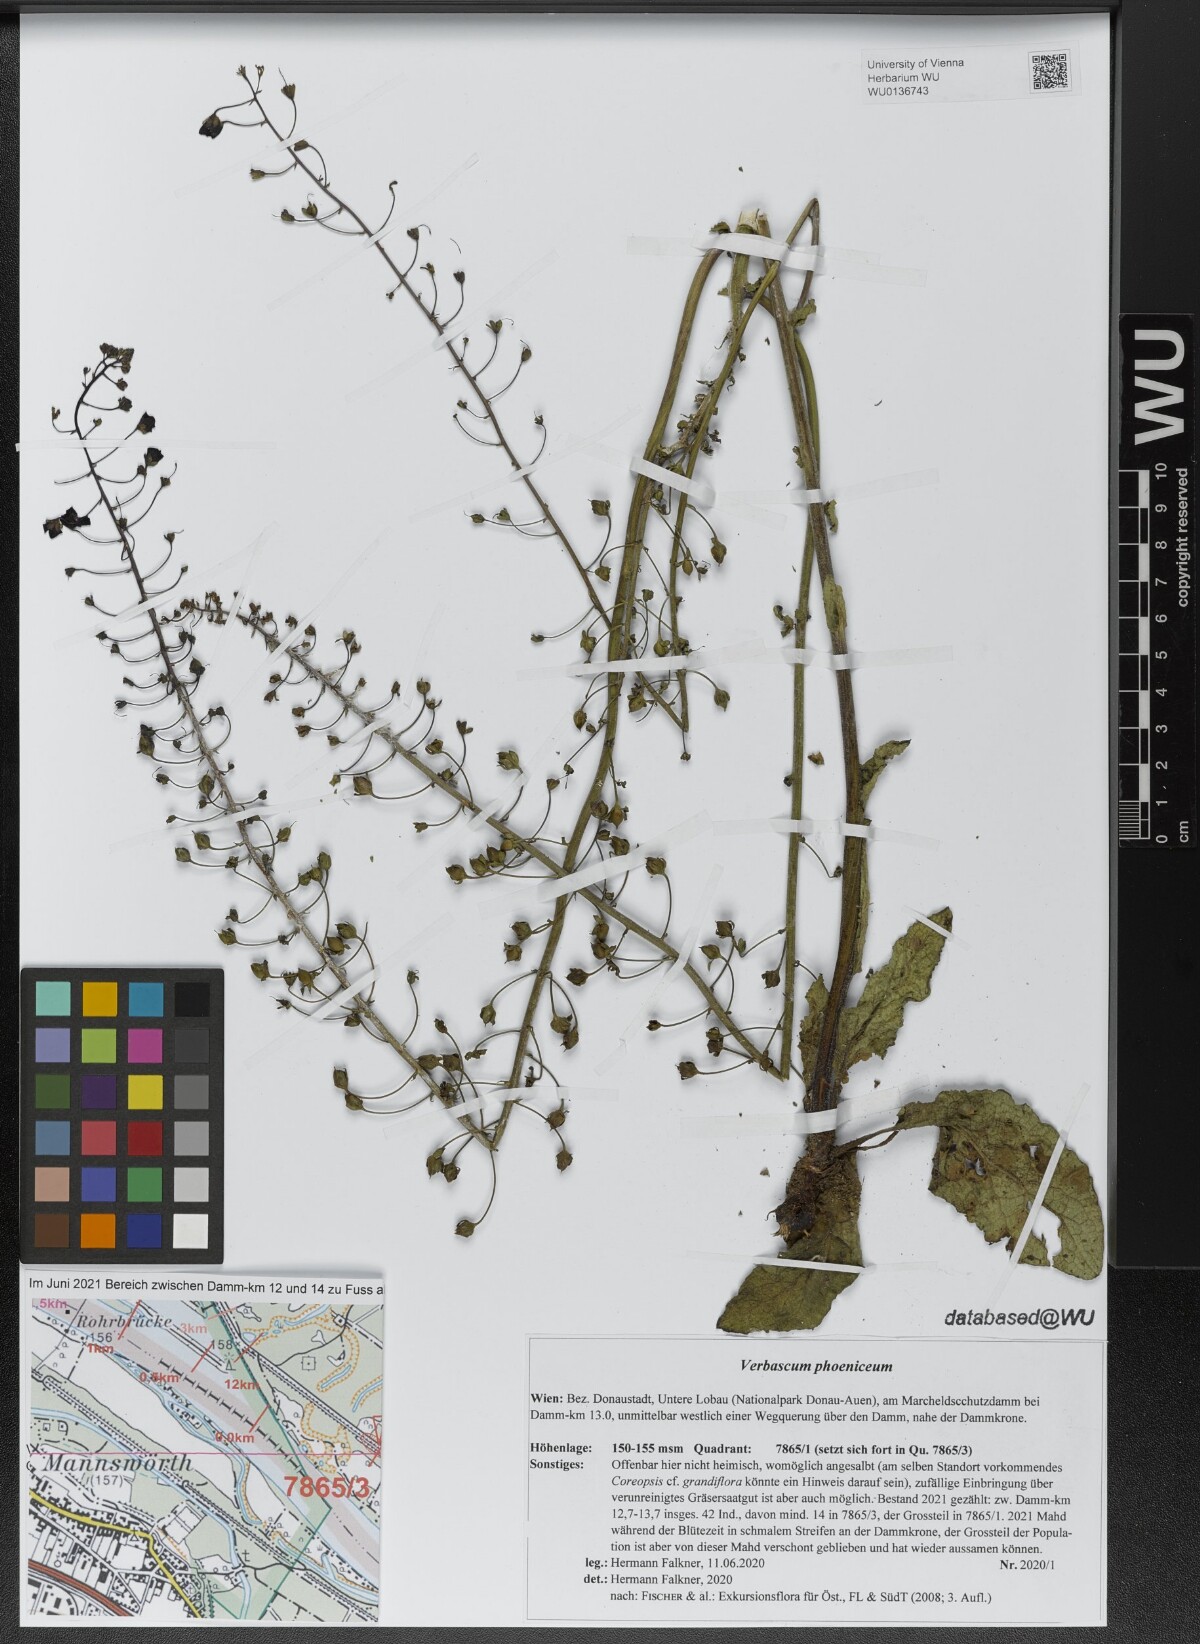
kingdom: Plantae
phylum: Tracheophyta
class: Magnoliopsida
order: Lamiales
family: Scrophulariaceae
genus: Verbascum
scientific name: Verbascum phoeniceum
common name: Purple mullein
